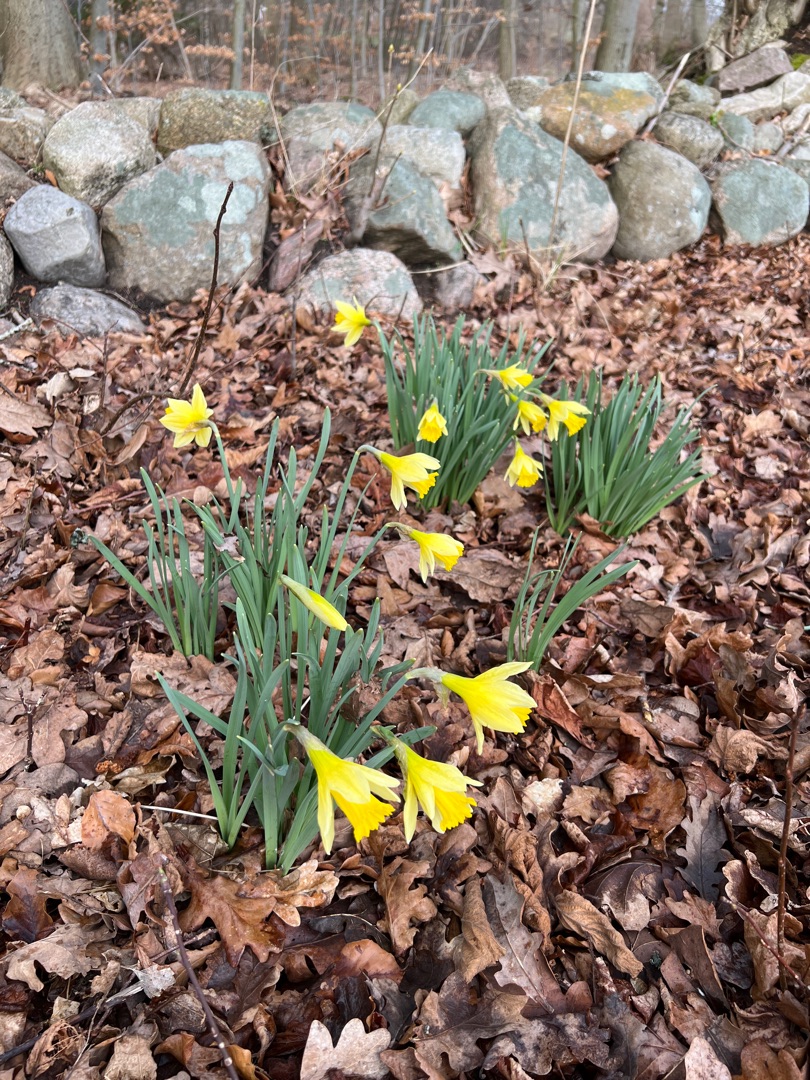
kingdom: Plantae
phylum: Tracheophyta
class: Liliopsida
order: Asparagales
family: Amaryllidaceae
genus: Narcissus
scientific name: Narcissus pseudonarcissus
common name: Påskelilje
